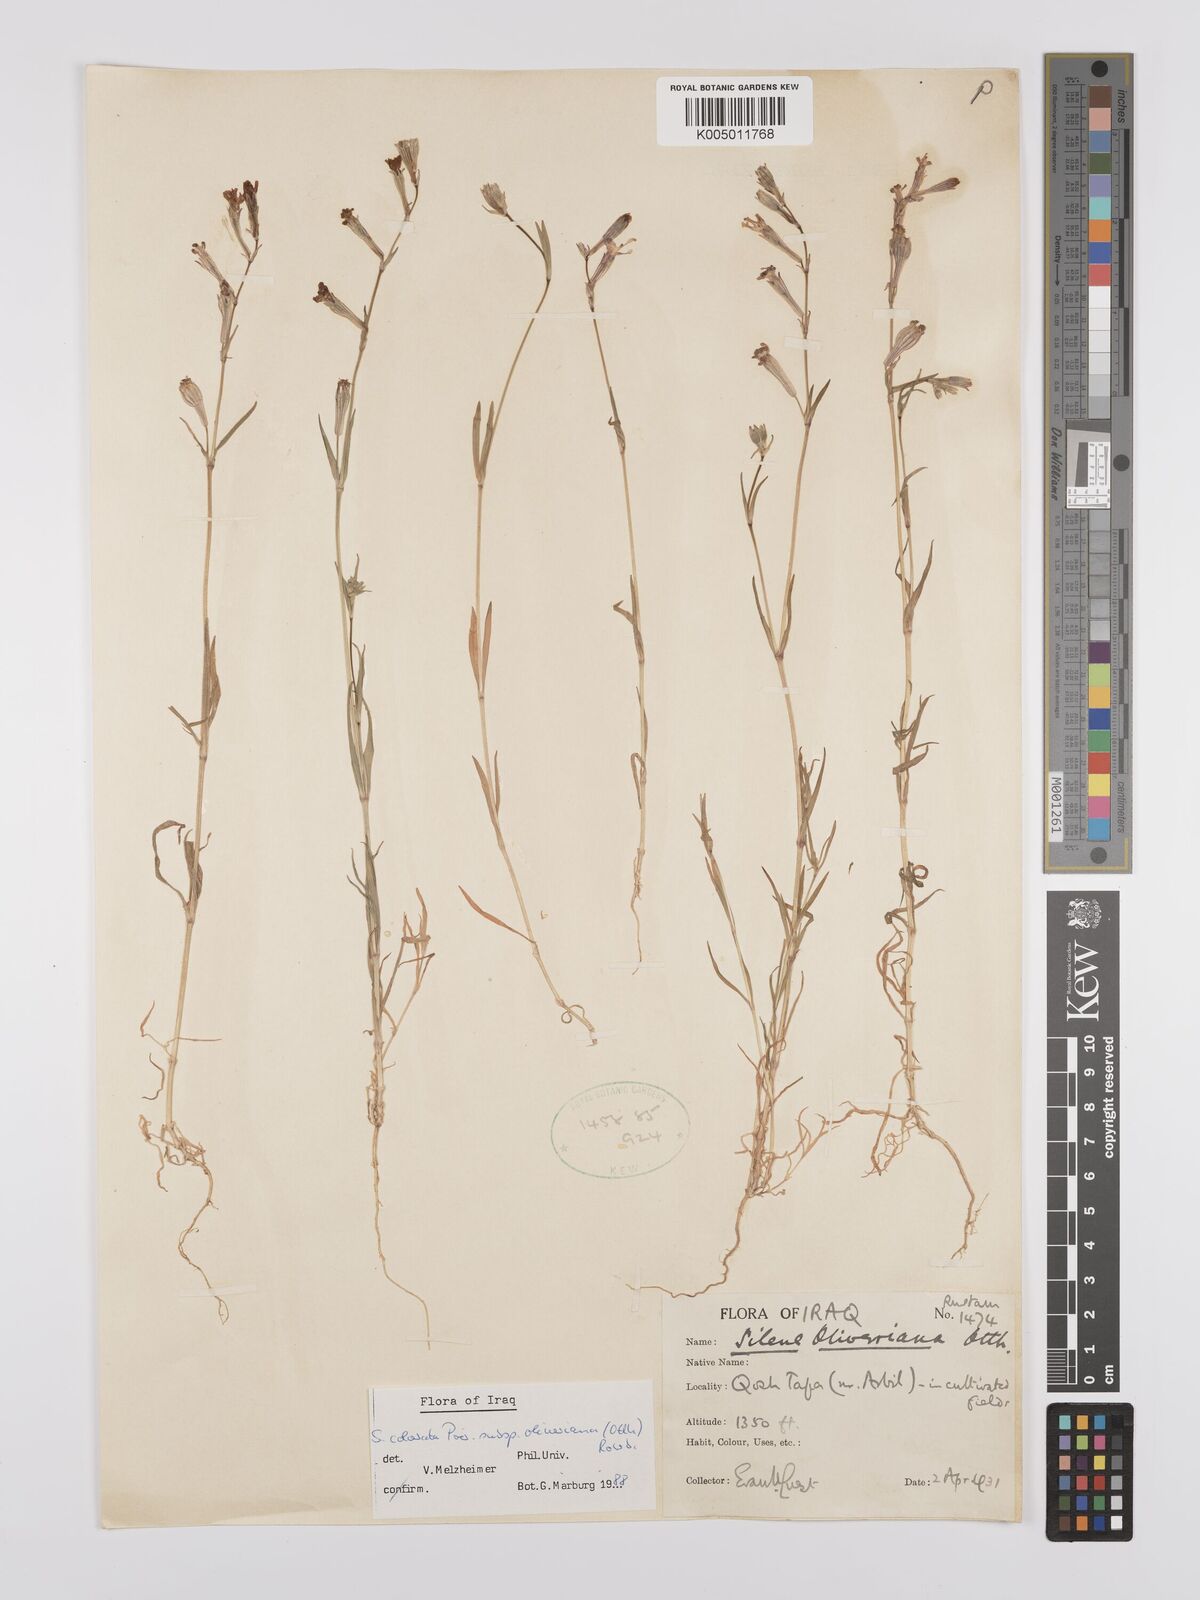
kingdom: Plantae
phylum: Tracheophyta
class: Magnoliopsida
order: Caryophyllales
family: Caryophyllaceae
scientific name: Caryophyllaceae
